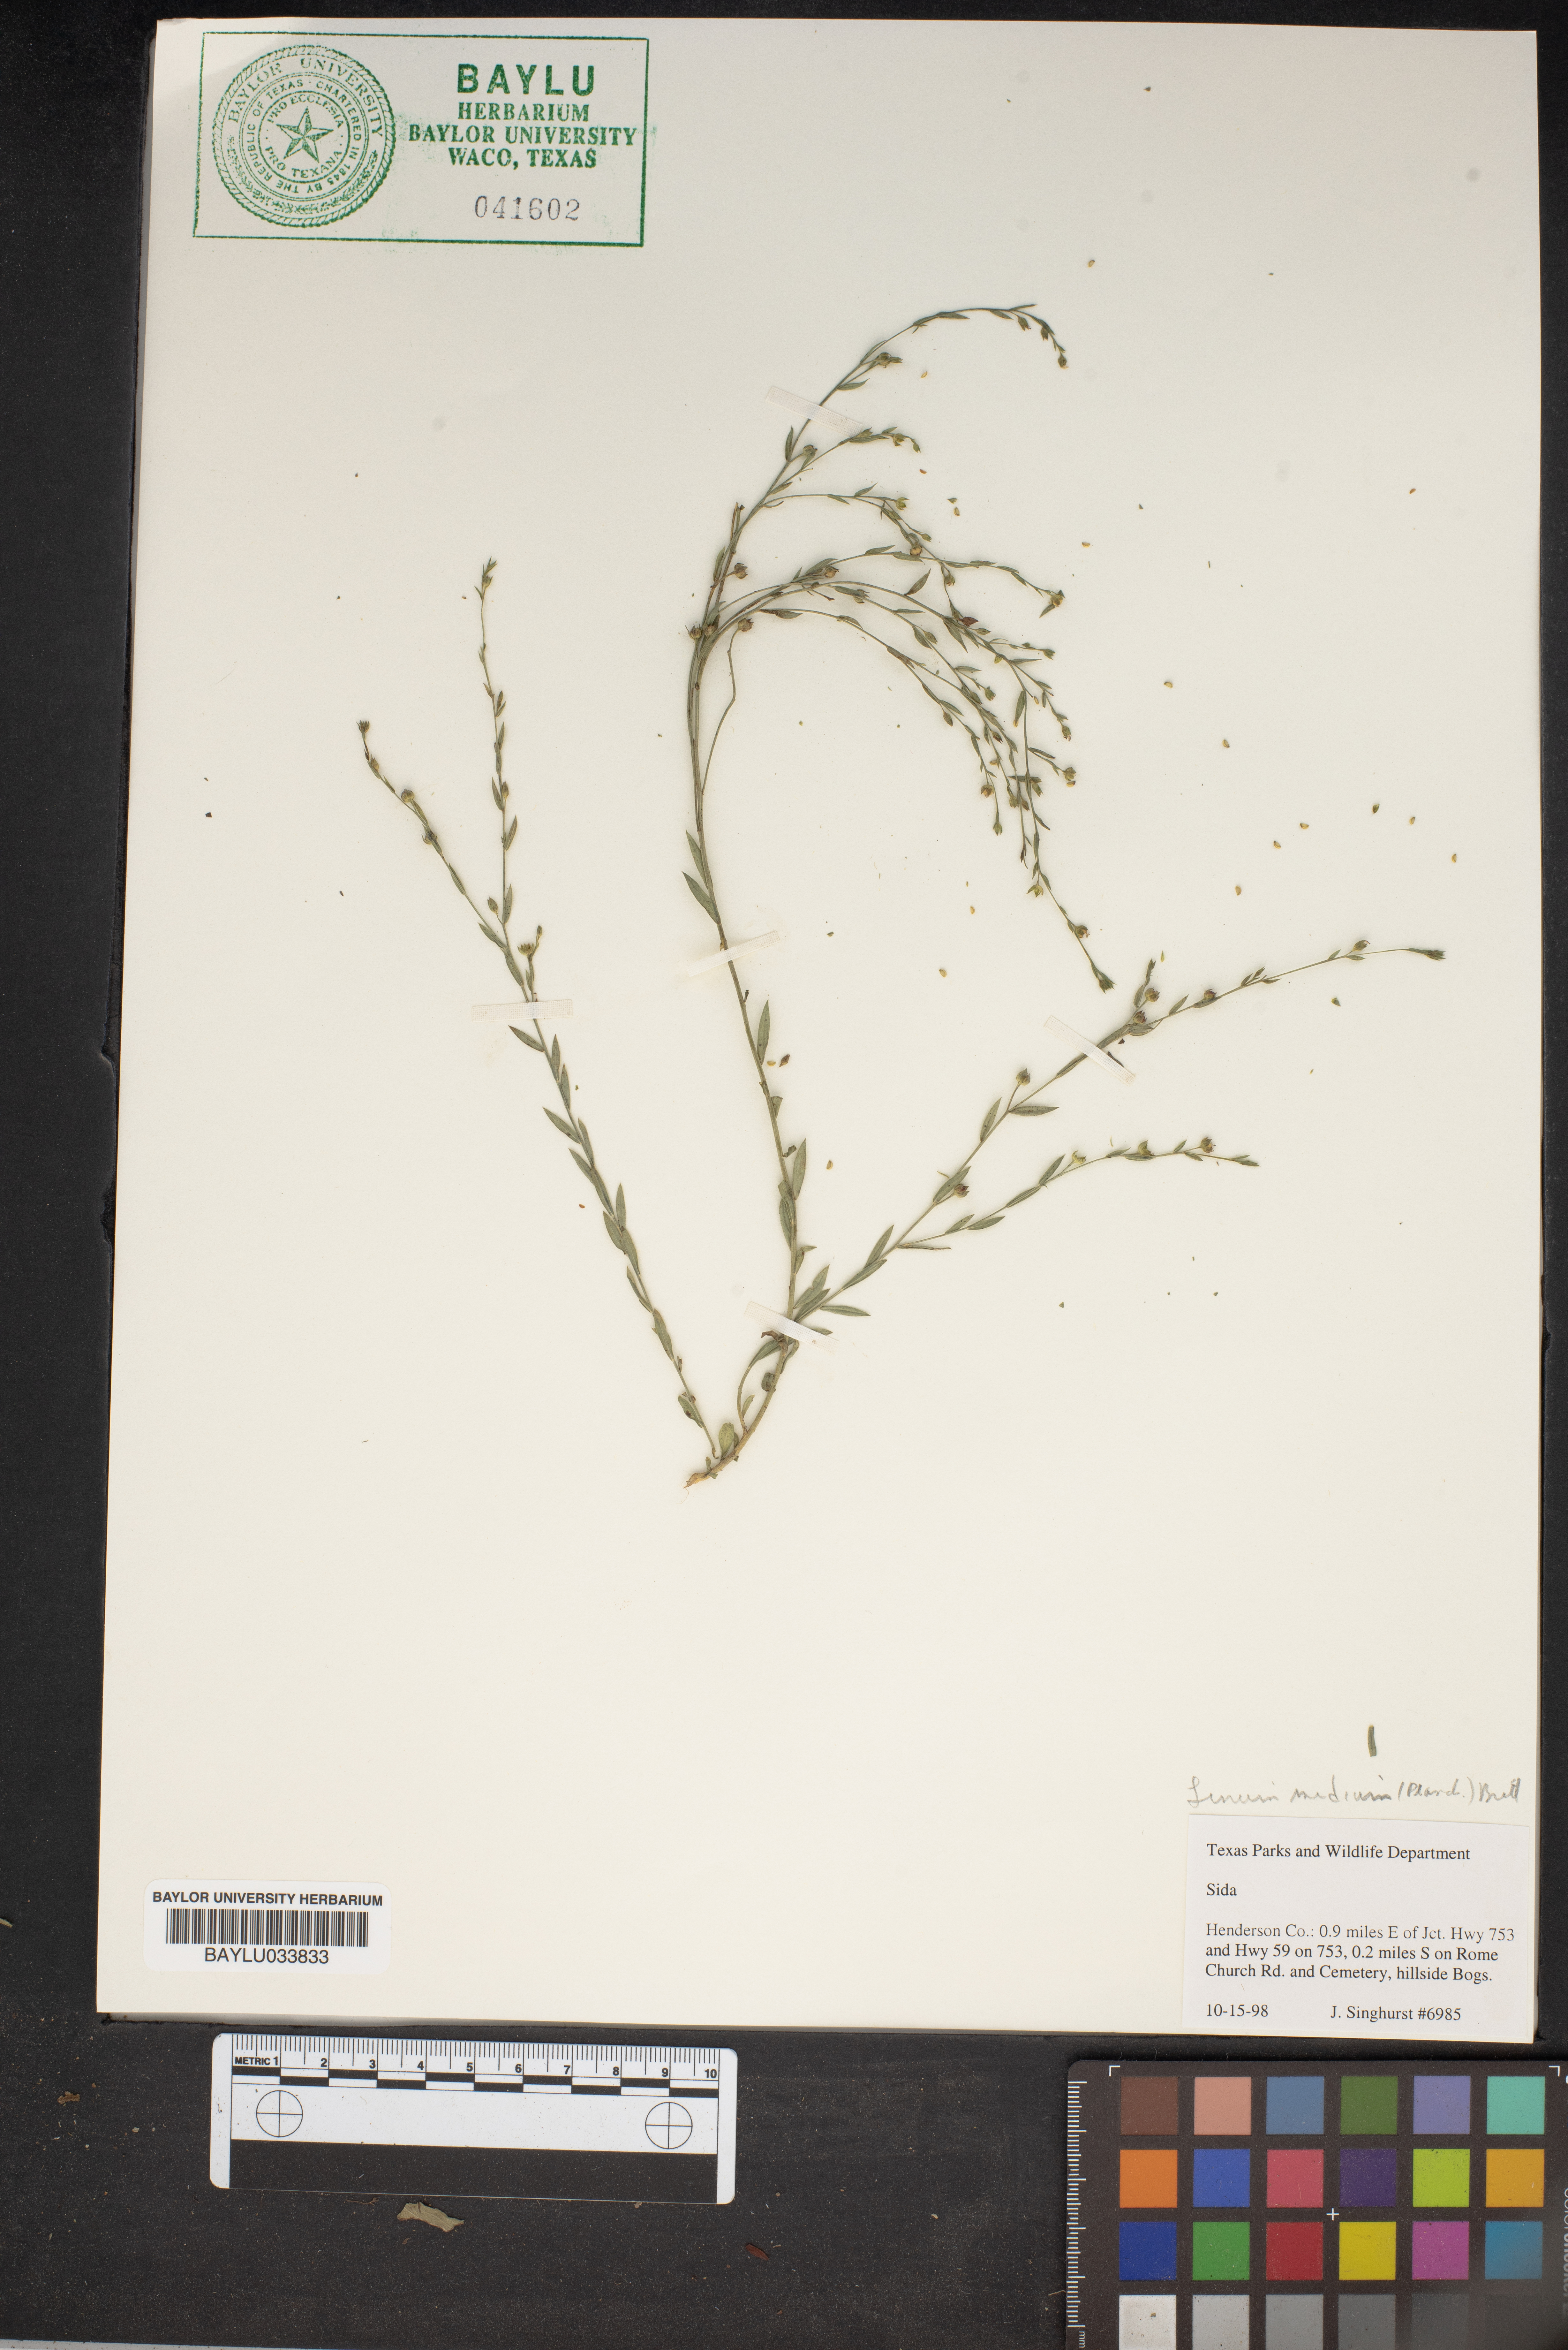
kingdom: Plantae
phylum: Tracheophyta
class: Magnoliopsida
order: Malvales
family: Malvaceae
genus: Sida
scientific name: Sida
